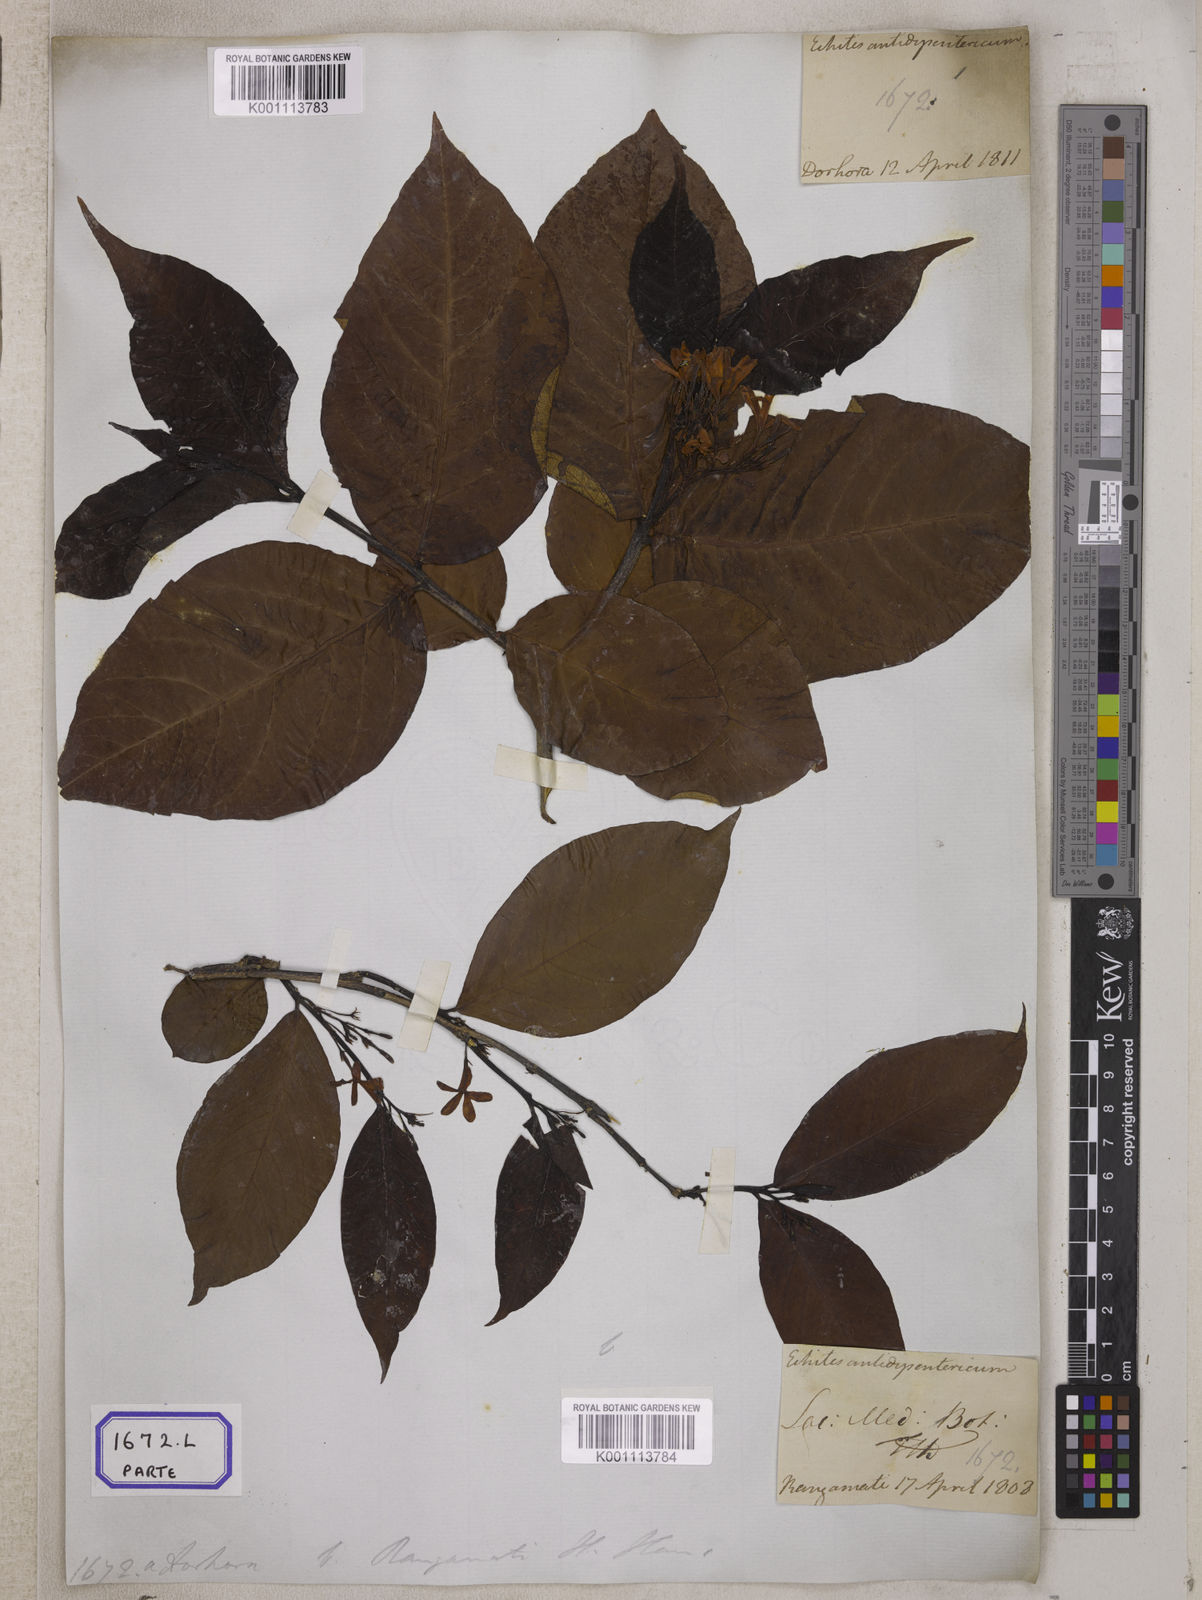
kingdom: Plantae
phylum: Tracheophyta
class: Magnoliopsida
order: Gentianales
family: Apocynaceae
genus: Holarrhena
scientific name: Holarrhena pubescens
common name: Bitter oleander
